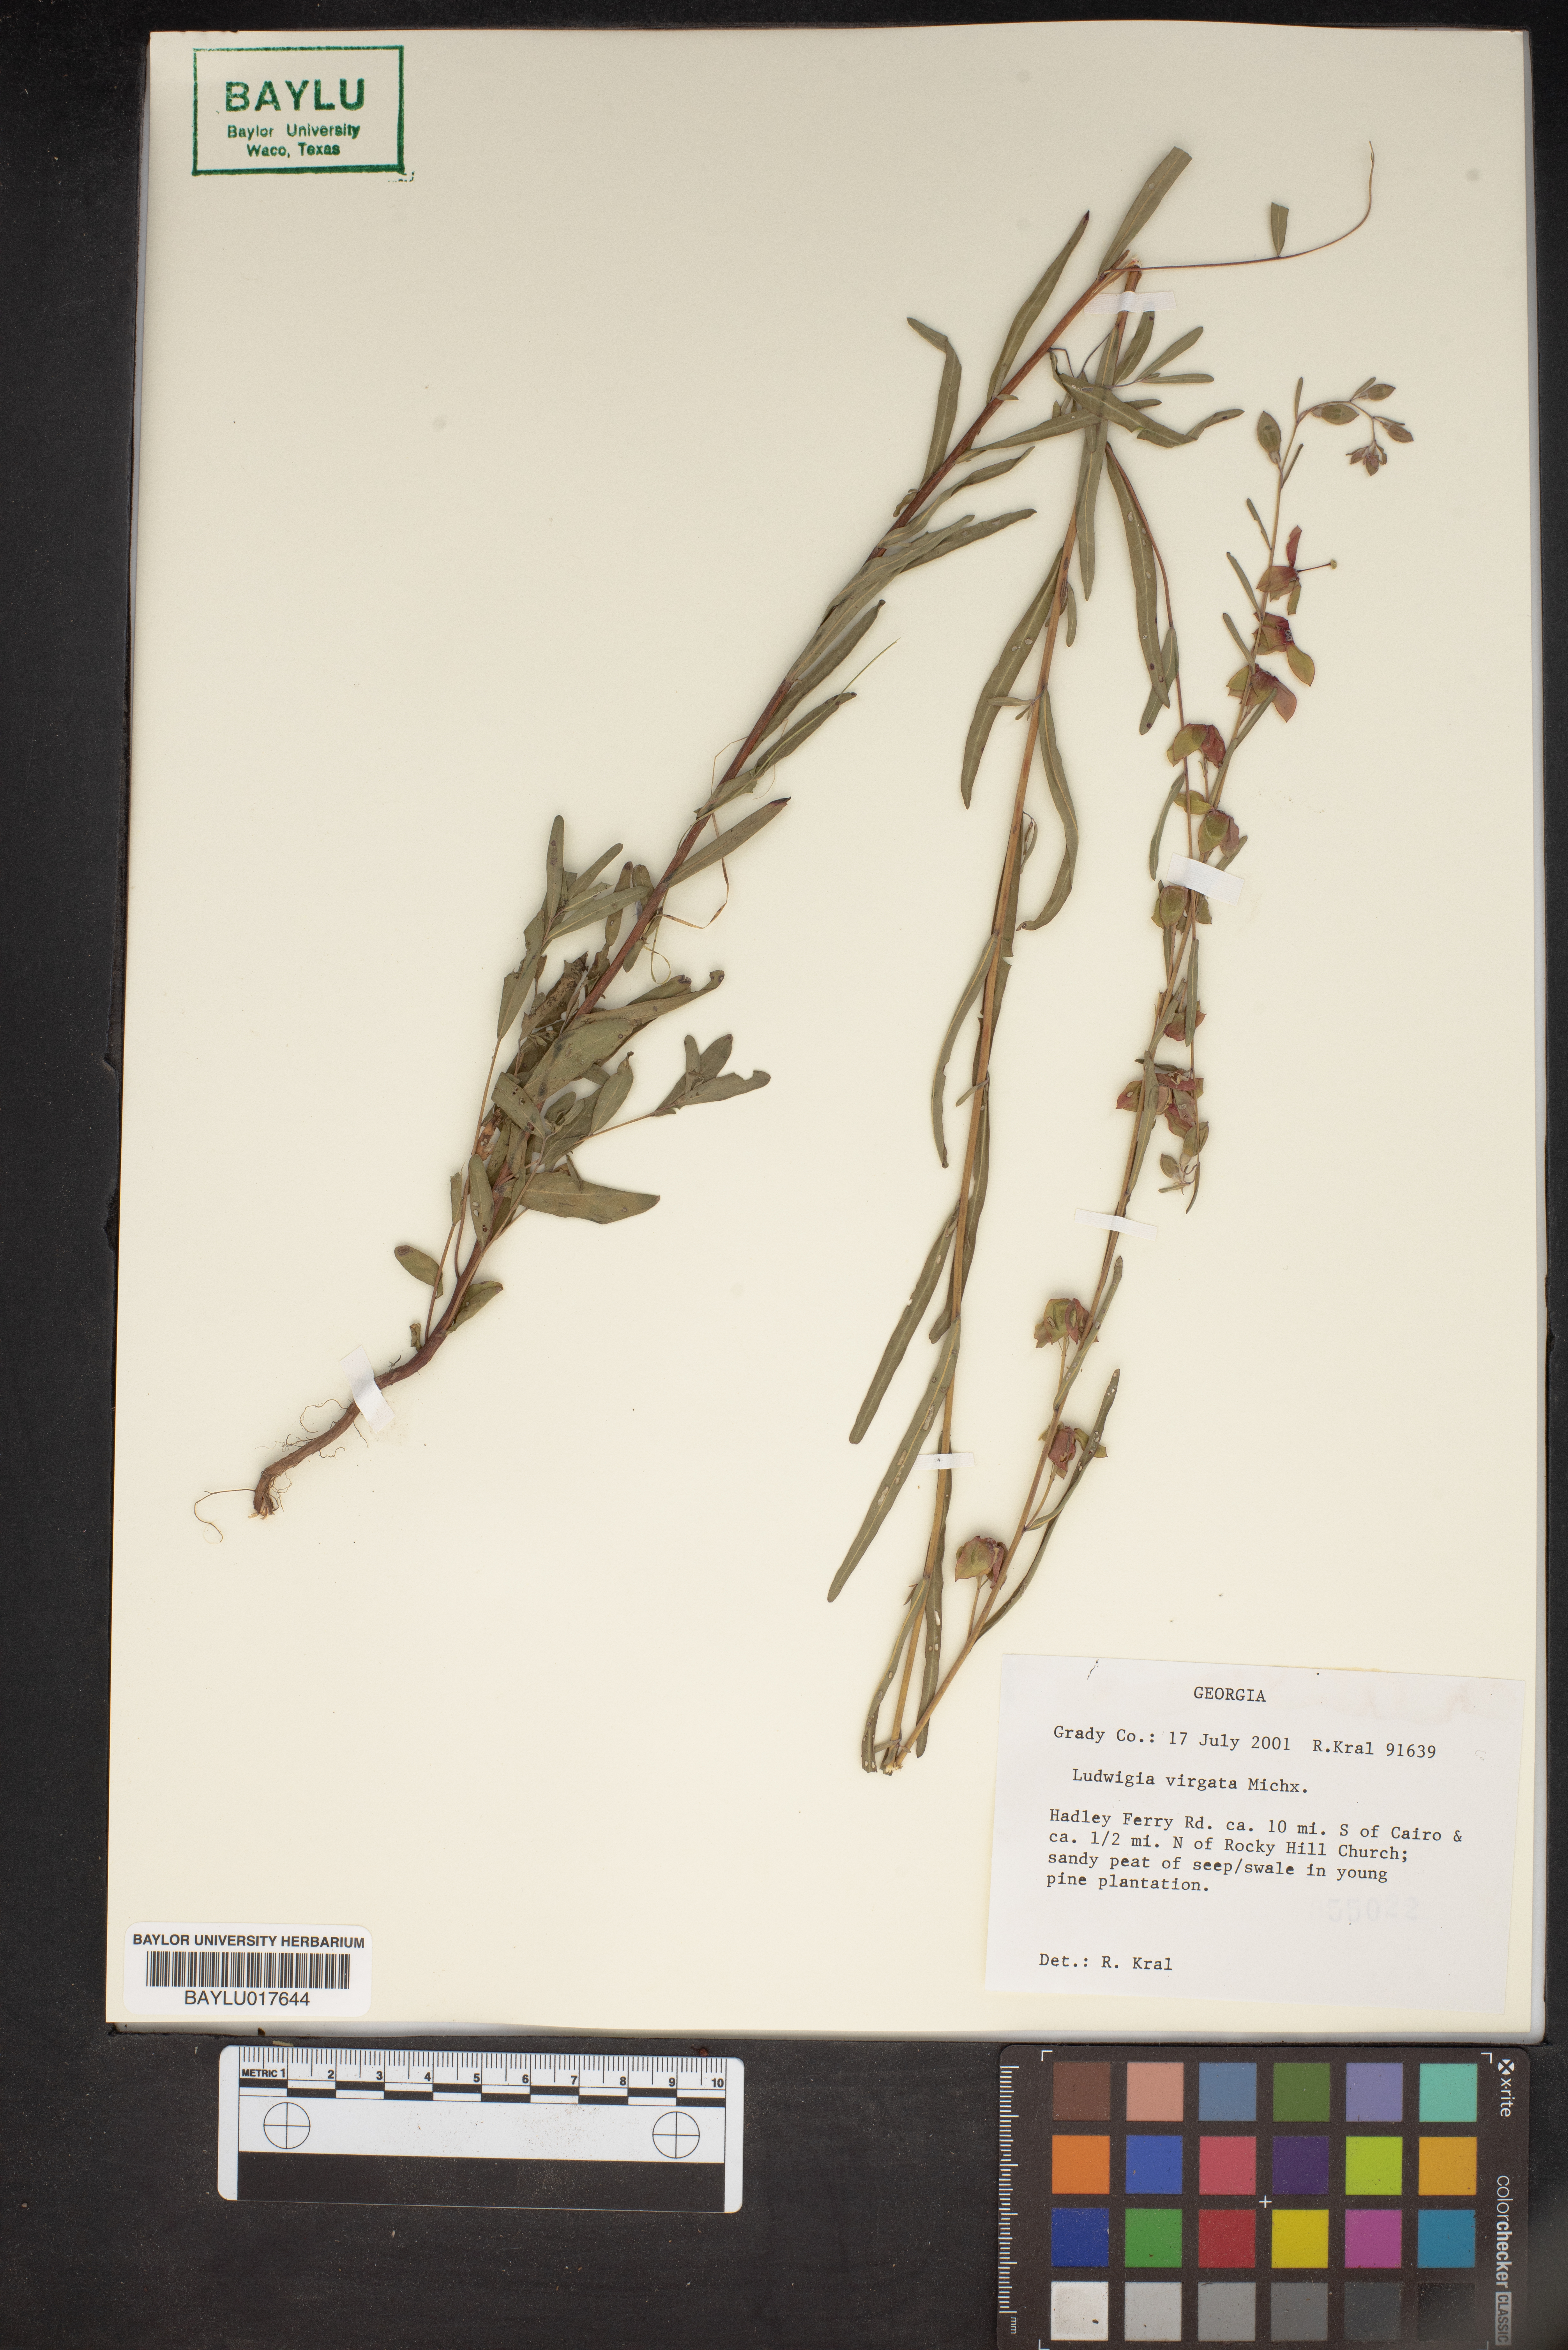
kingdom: Plantae
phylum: Tracheophyta
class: Magnoliopsida
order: Myrtales
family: Onagraceae
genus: Ludwigia
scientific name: Ludwigia virgata
